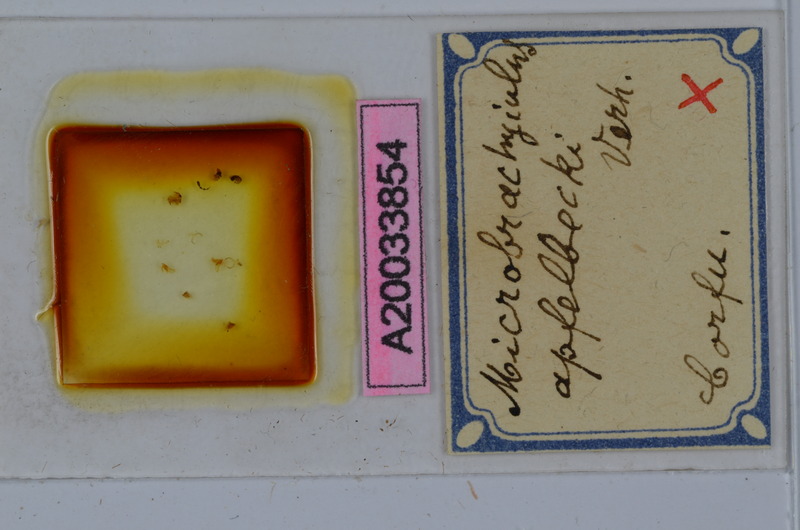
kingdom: Animalia
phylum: Arthropoda
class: Diplopoda
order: Julida
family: Julidae
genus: Brachyiulus
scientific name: Brachyiulus apfelbecki
